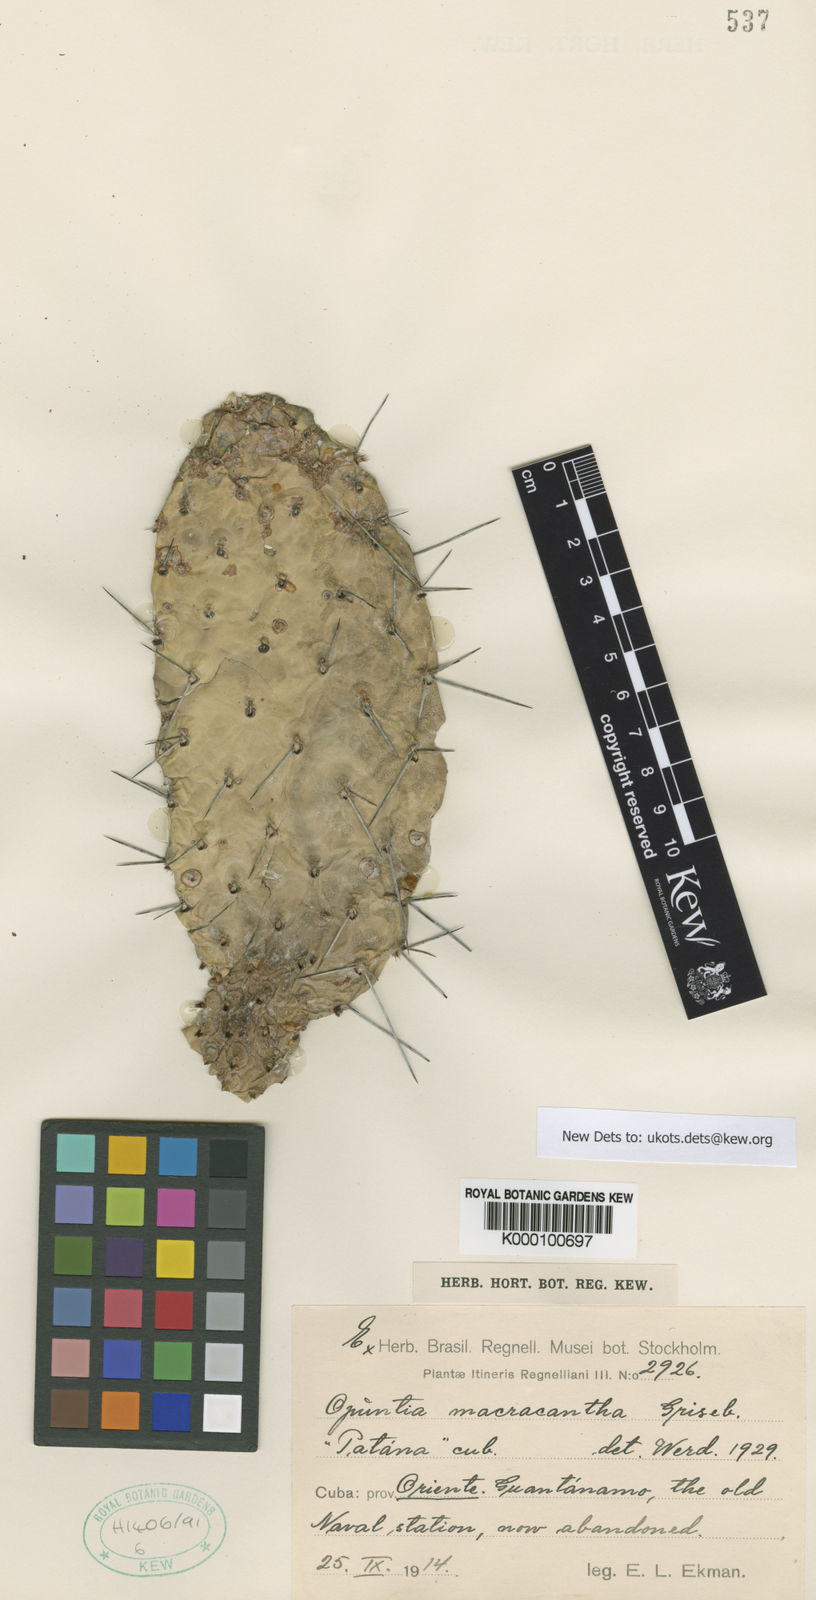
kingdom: Plantae
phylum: Tracheophyta
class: Magnoliopsida
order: Caryophyllales
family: Cactaceae
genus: Consolea
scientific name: Consolea macracantha
